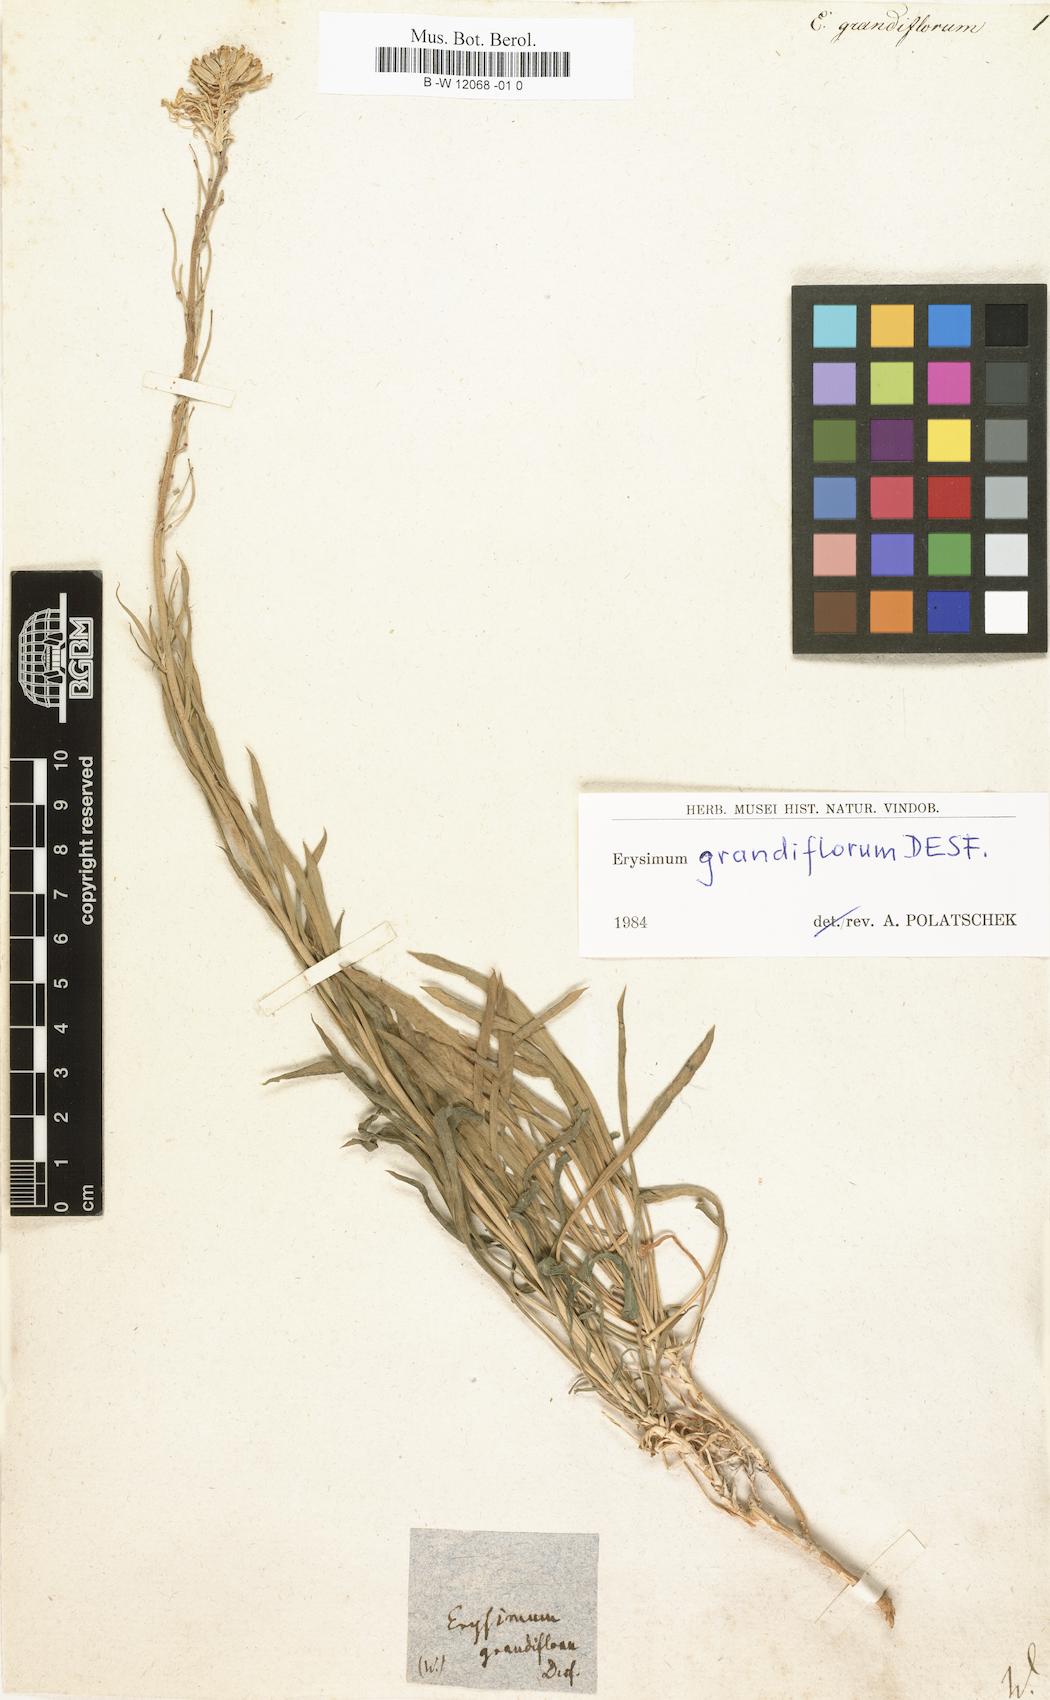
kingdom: Plantae
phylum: Tracheophyta
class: Magnoliopsida
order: Brassicales
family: Brassicaceae
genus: Erysimum
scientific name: Erysimum grandiflorum
